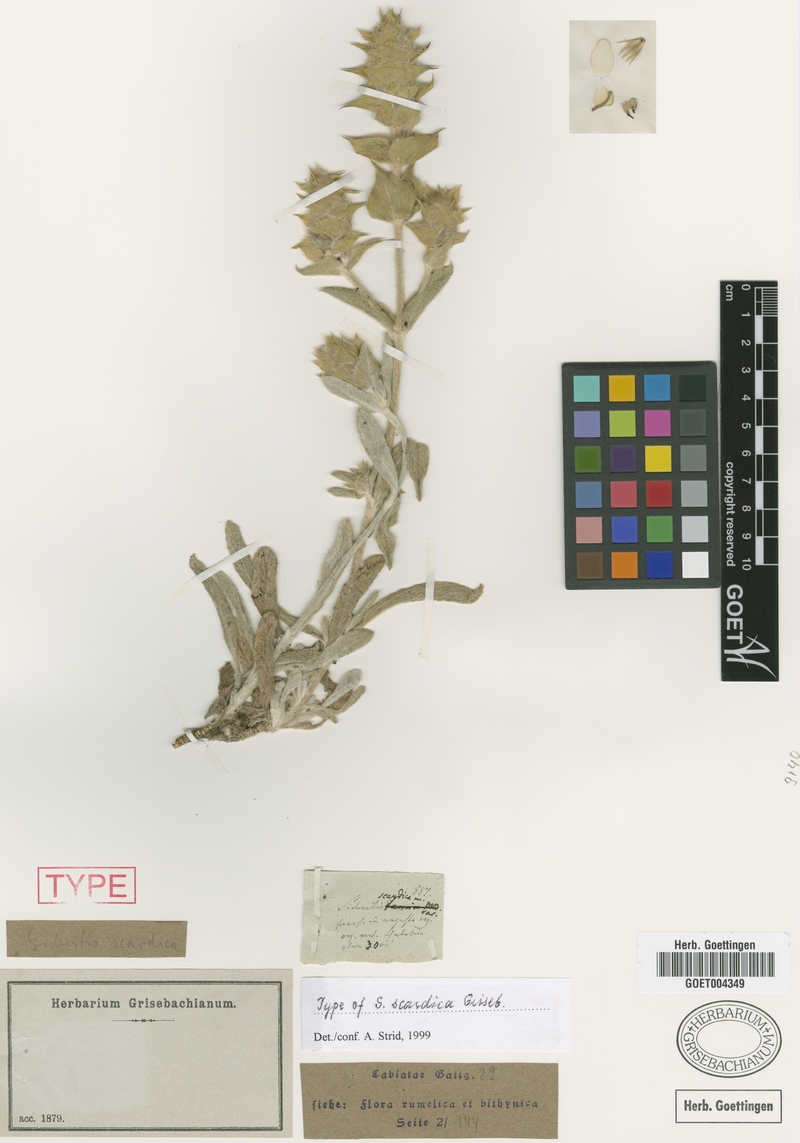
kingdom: Plantae
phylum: Tracheophyta
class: Magnoliopsida
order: Lamiales
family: Lamiaceae
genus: Sideritis
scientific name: Sideritis scardica
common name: Greek mountain tea
